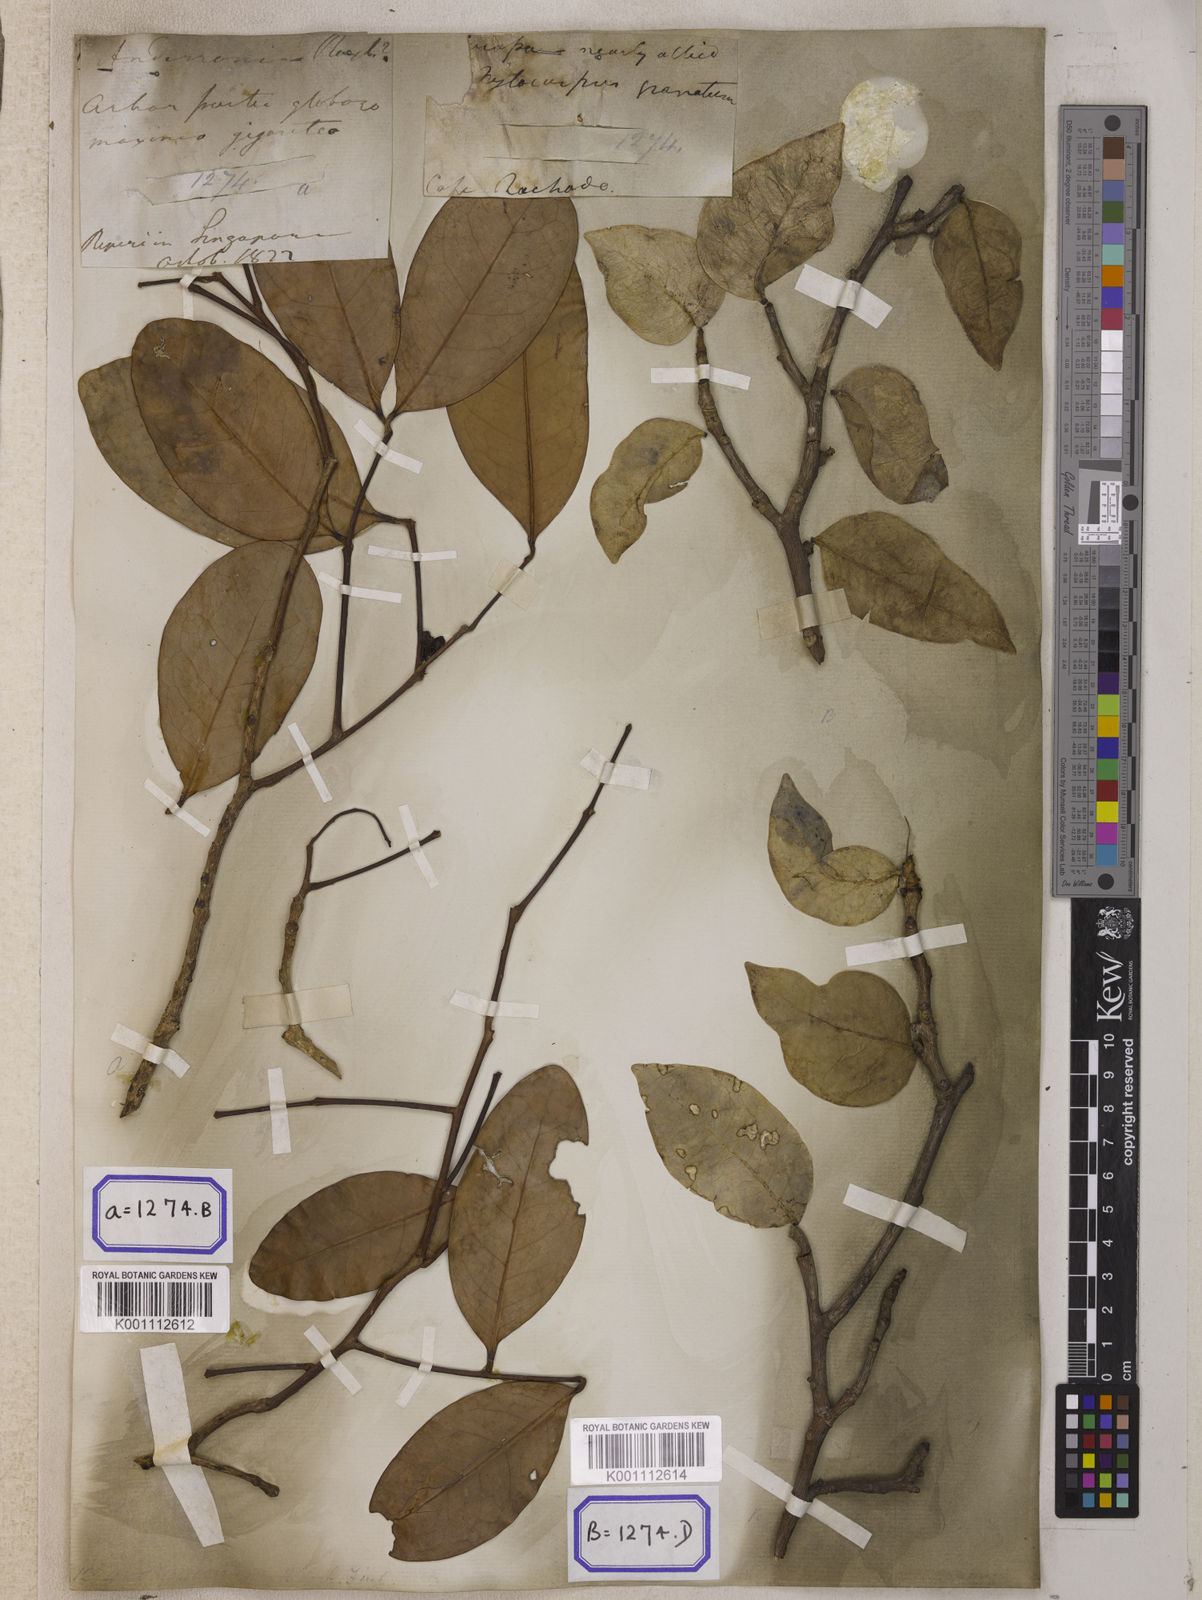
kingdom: Plantae
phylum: Tracheophyta
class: Magnoliopsida
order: Sapindales
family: Meliaceae
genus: Xylocarpus
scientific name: Xylocarpus moluccensis
